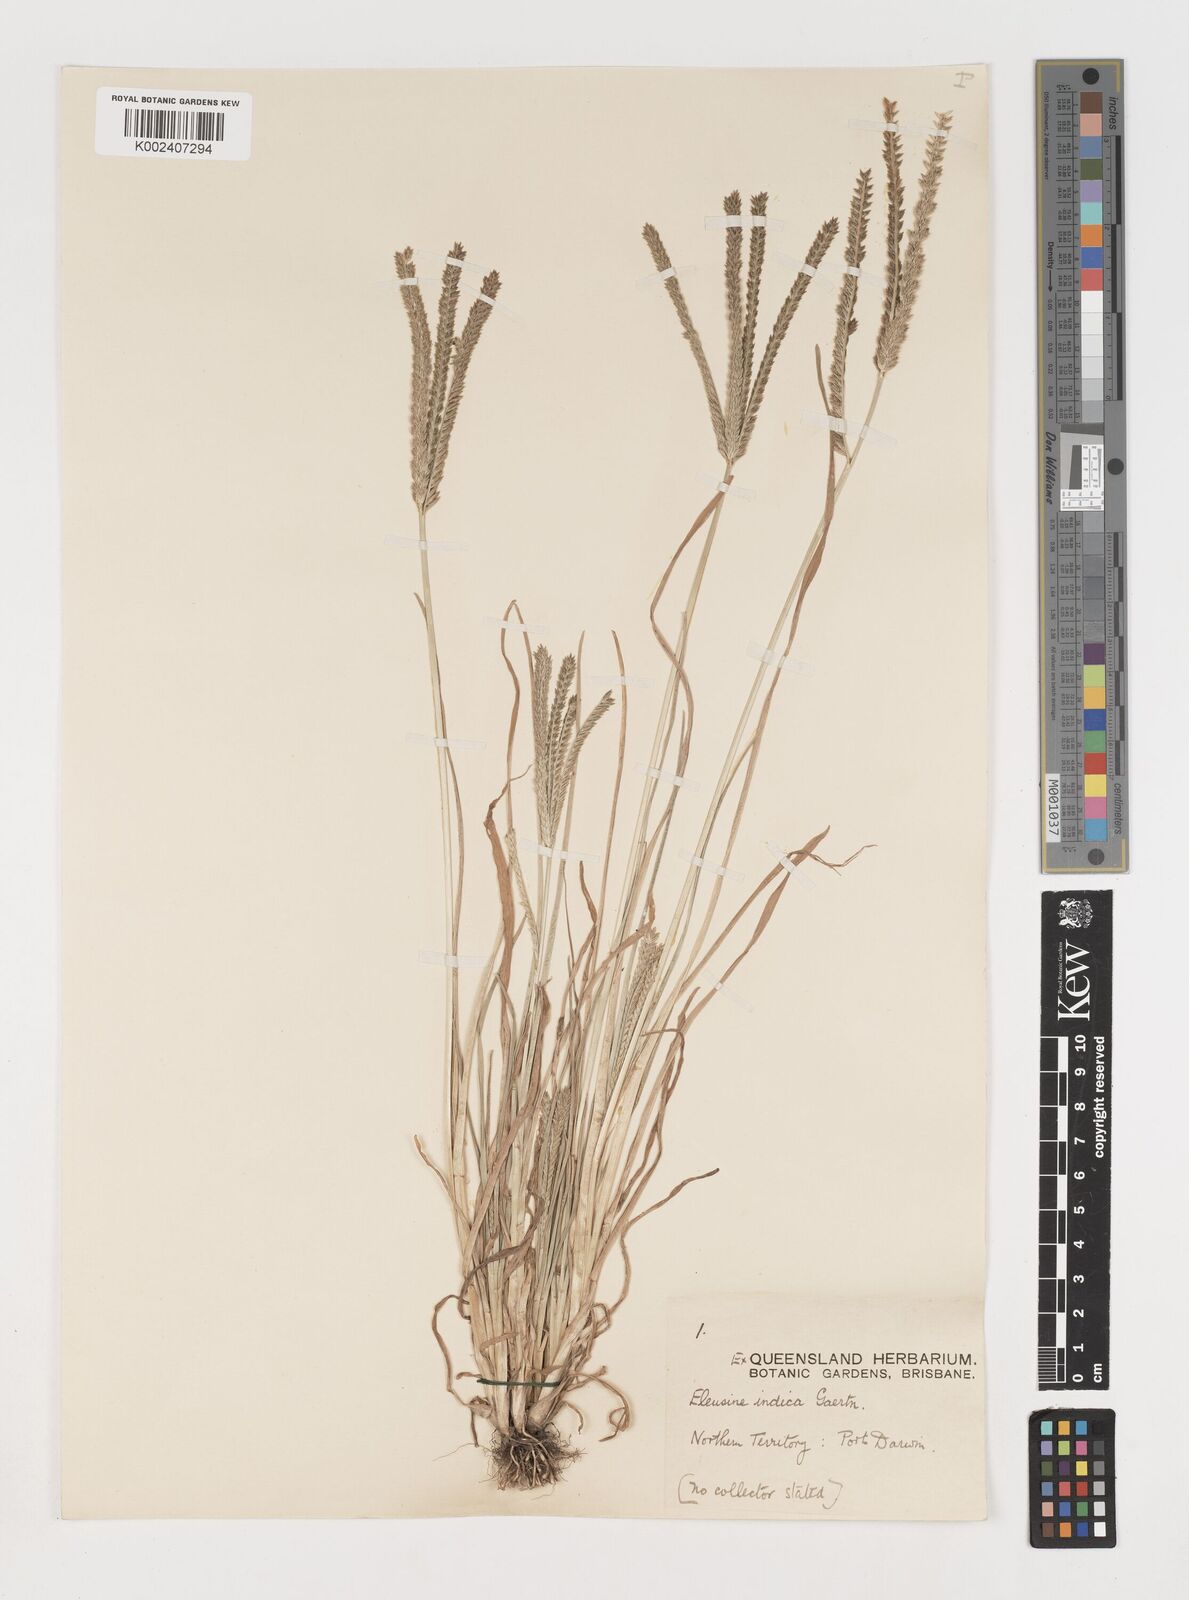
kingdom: Plantae
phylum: Tracheophyta
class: Liliopsida
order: Poales
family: Poaceae
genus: Eleusine
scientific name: Eleusine indica
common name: Yard-grass
